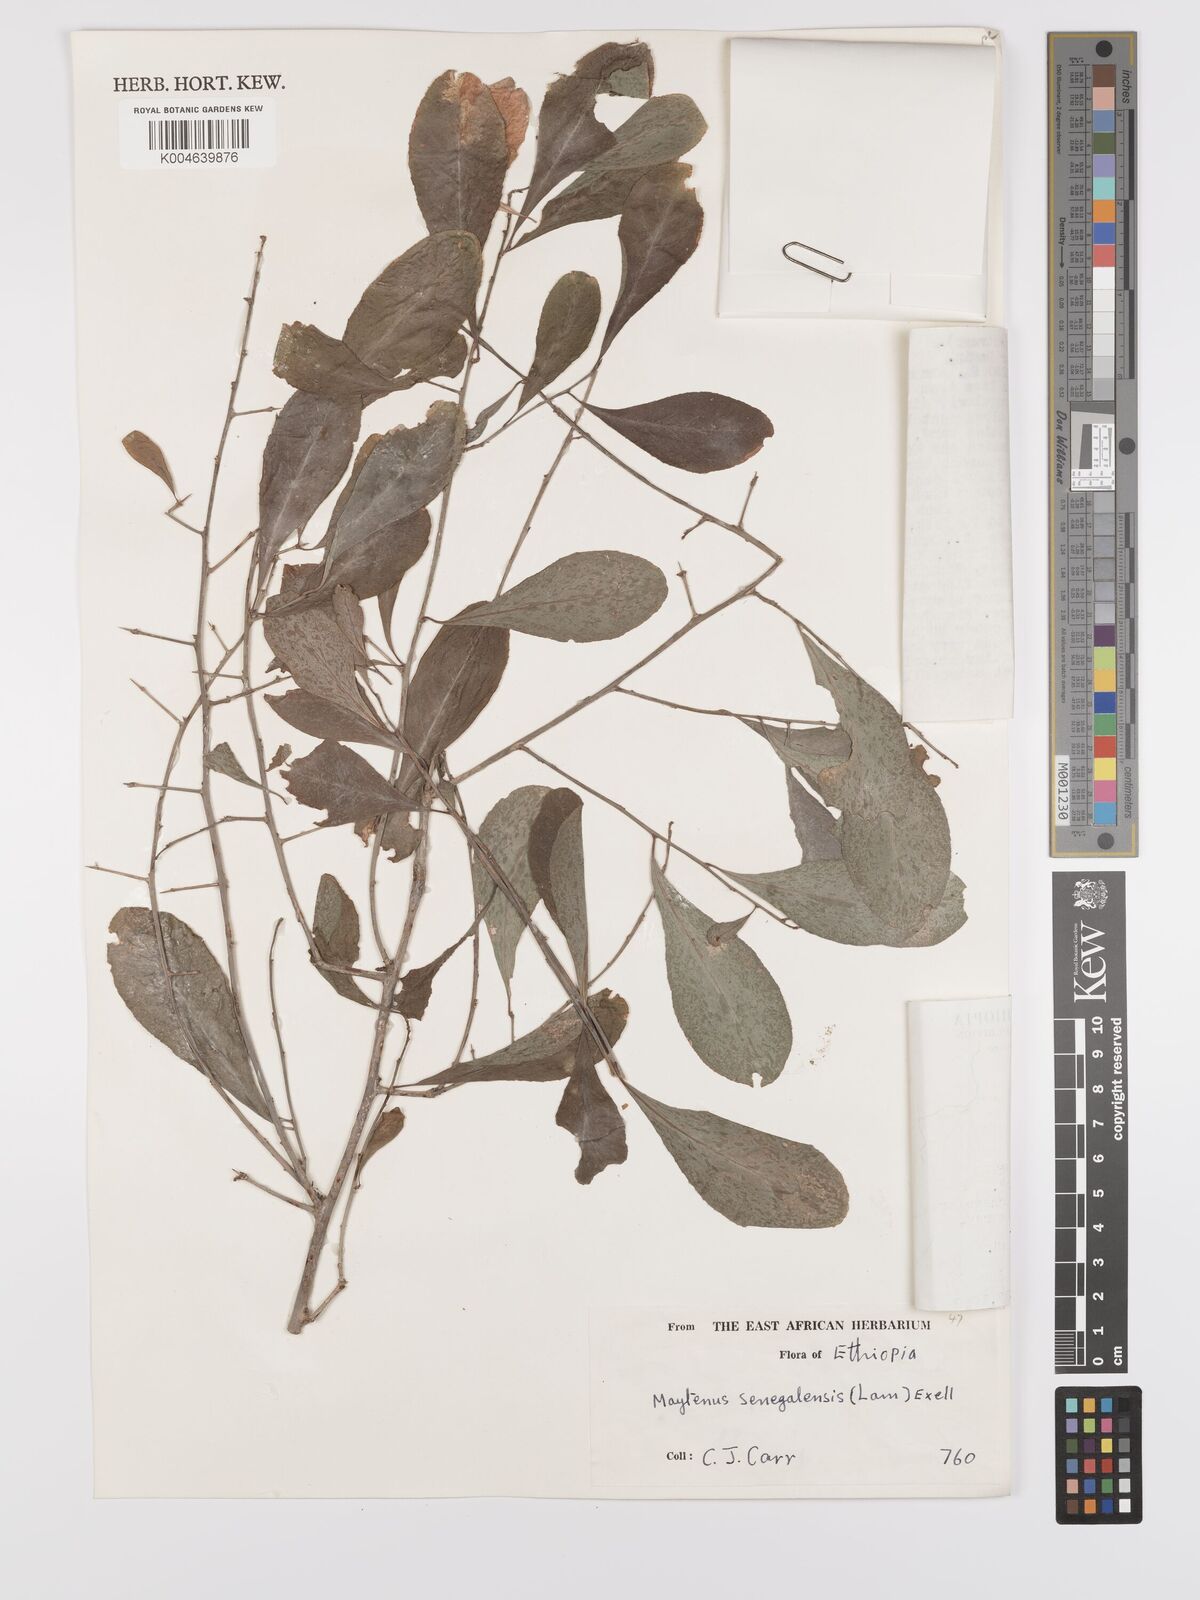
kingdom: Plantae
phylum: Tracheophyta
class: Magnoliopsida
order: Celastrales
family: Celastraceae
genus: Gymnosporia
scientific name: Gymnosporia senegalensis
